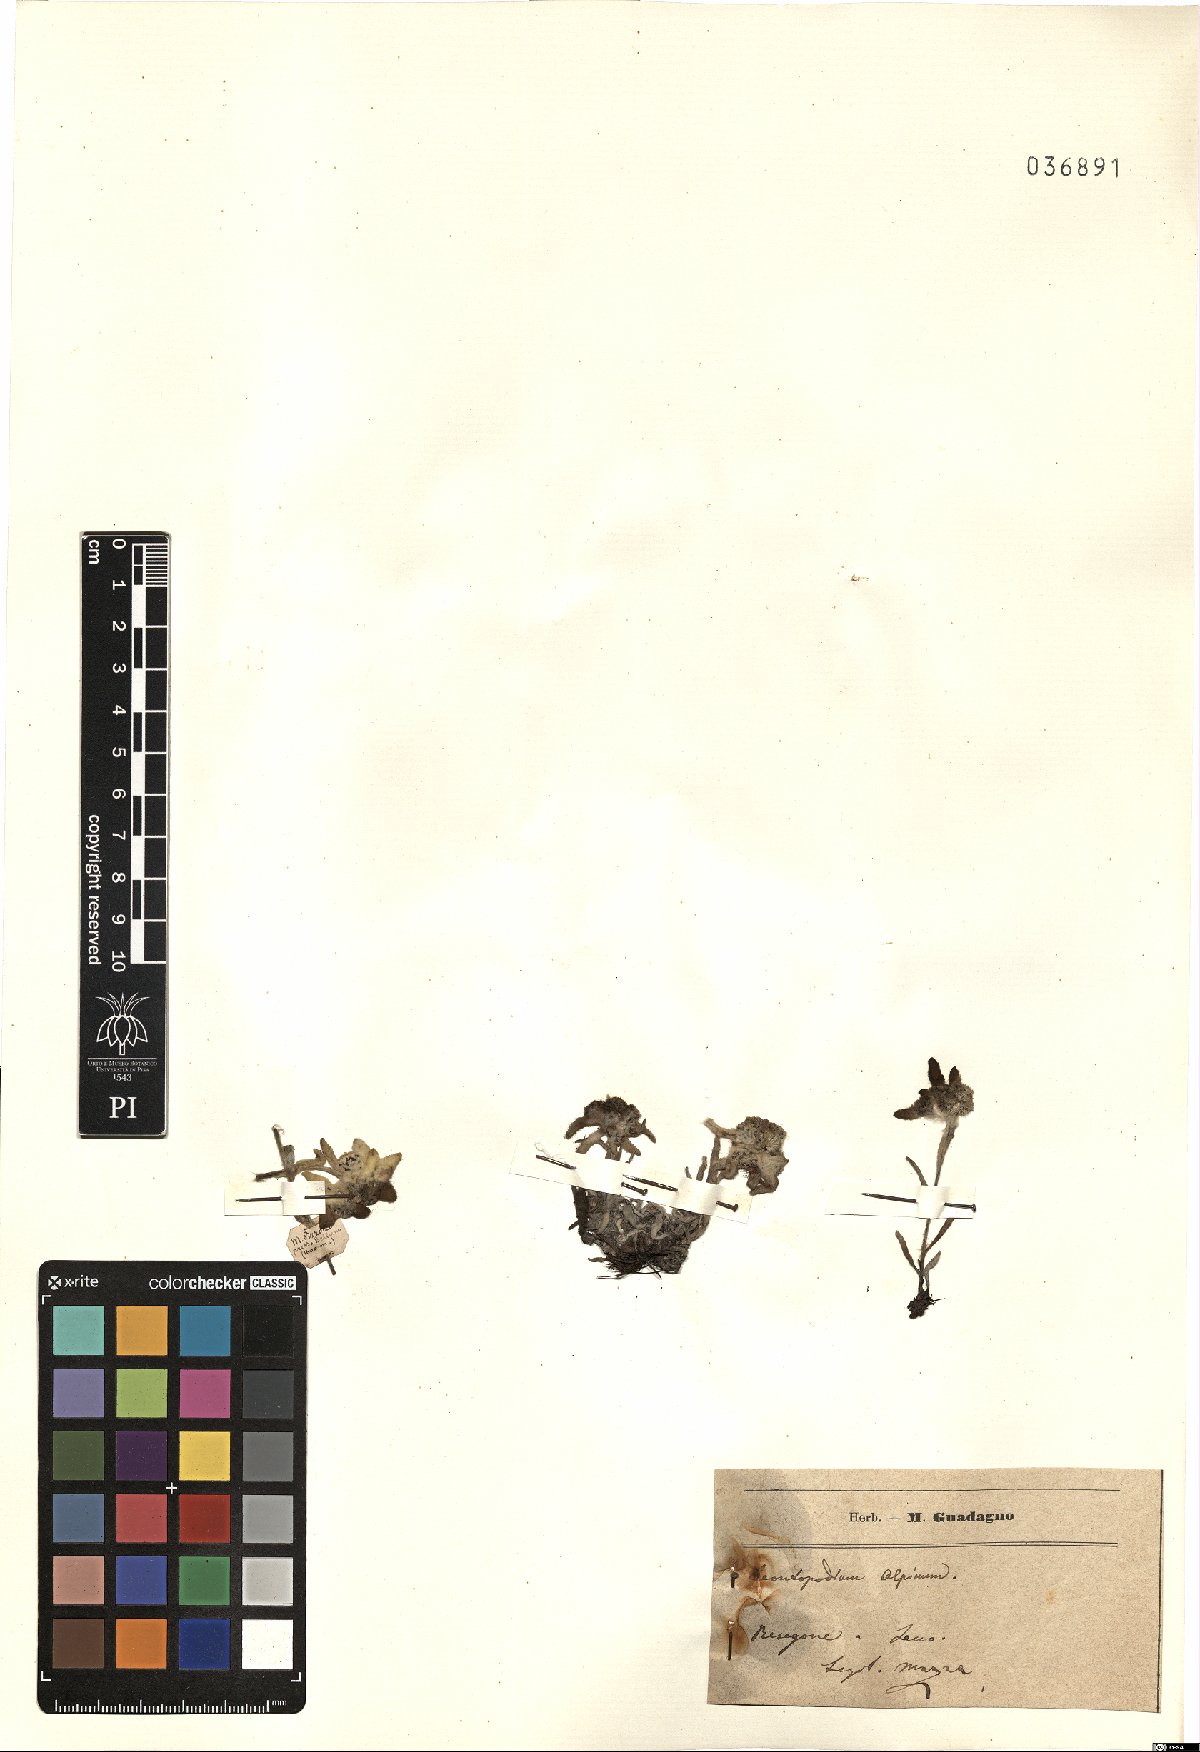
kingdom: Plantae
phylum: Tracheophyta
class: Magnoliopsida
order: Asterales
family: Asteraceae
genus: Leontopodium
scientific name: Leontopodium nivale
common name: Edelweiss
